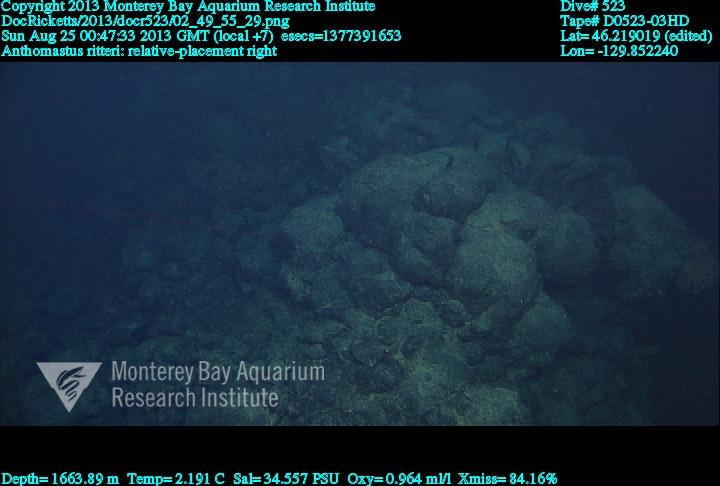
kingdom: Animalia
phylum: Cnidaria
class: Anthozoa
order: Scleralcyonacea
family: Coralliidae
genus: Heteropolypus
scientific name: Heteropolypus ritteri
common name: Ritter's soft coral
